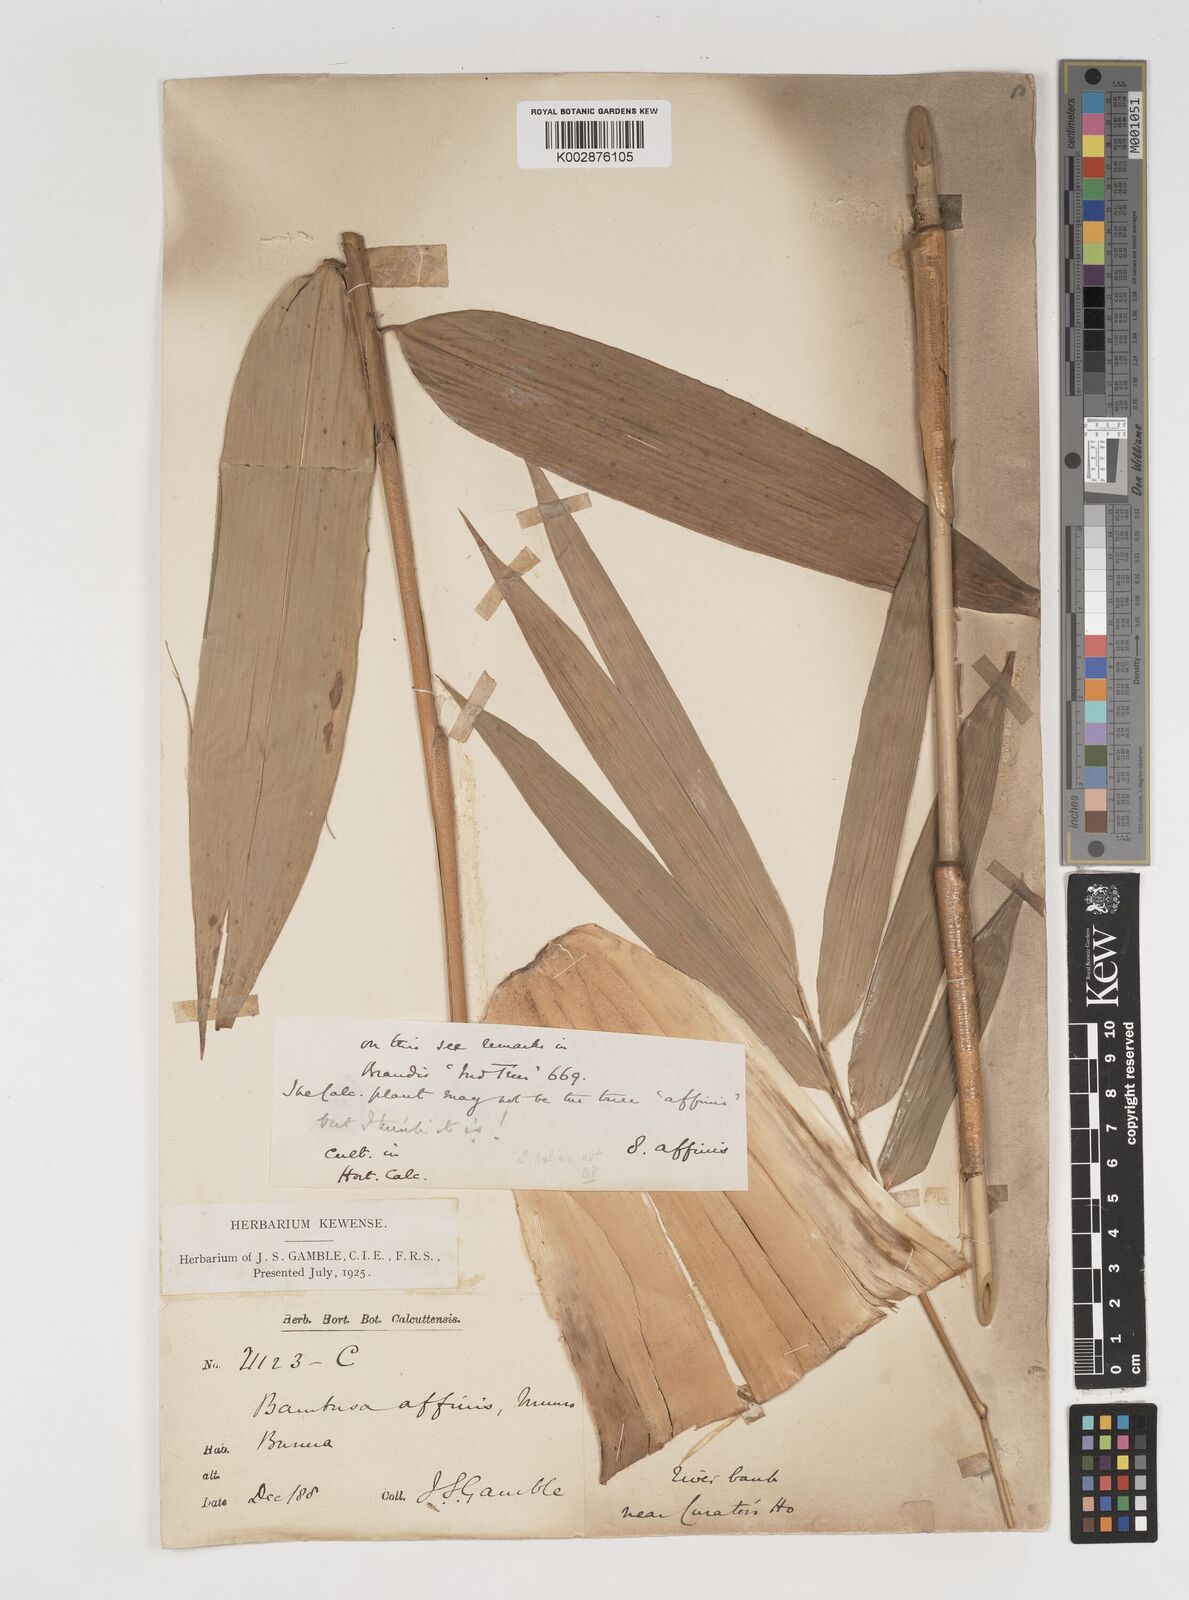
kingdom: Plantae
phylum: Tracheophyta
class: Liliopsida
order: Poales
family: Poaceae
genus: Bambusa
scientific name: Bambusa affinis
